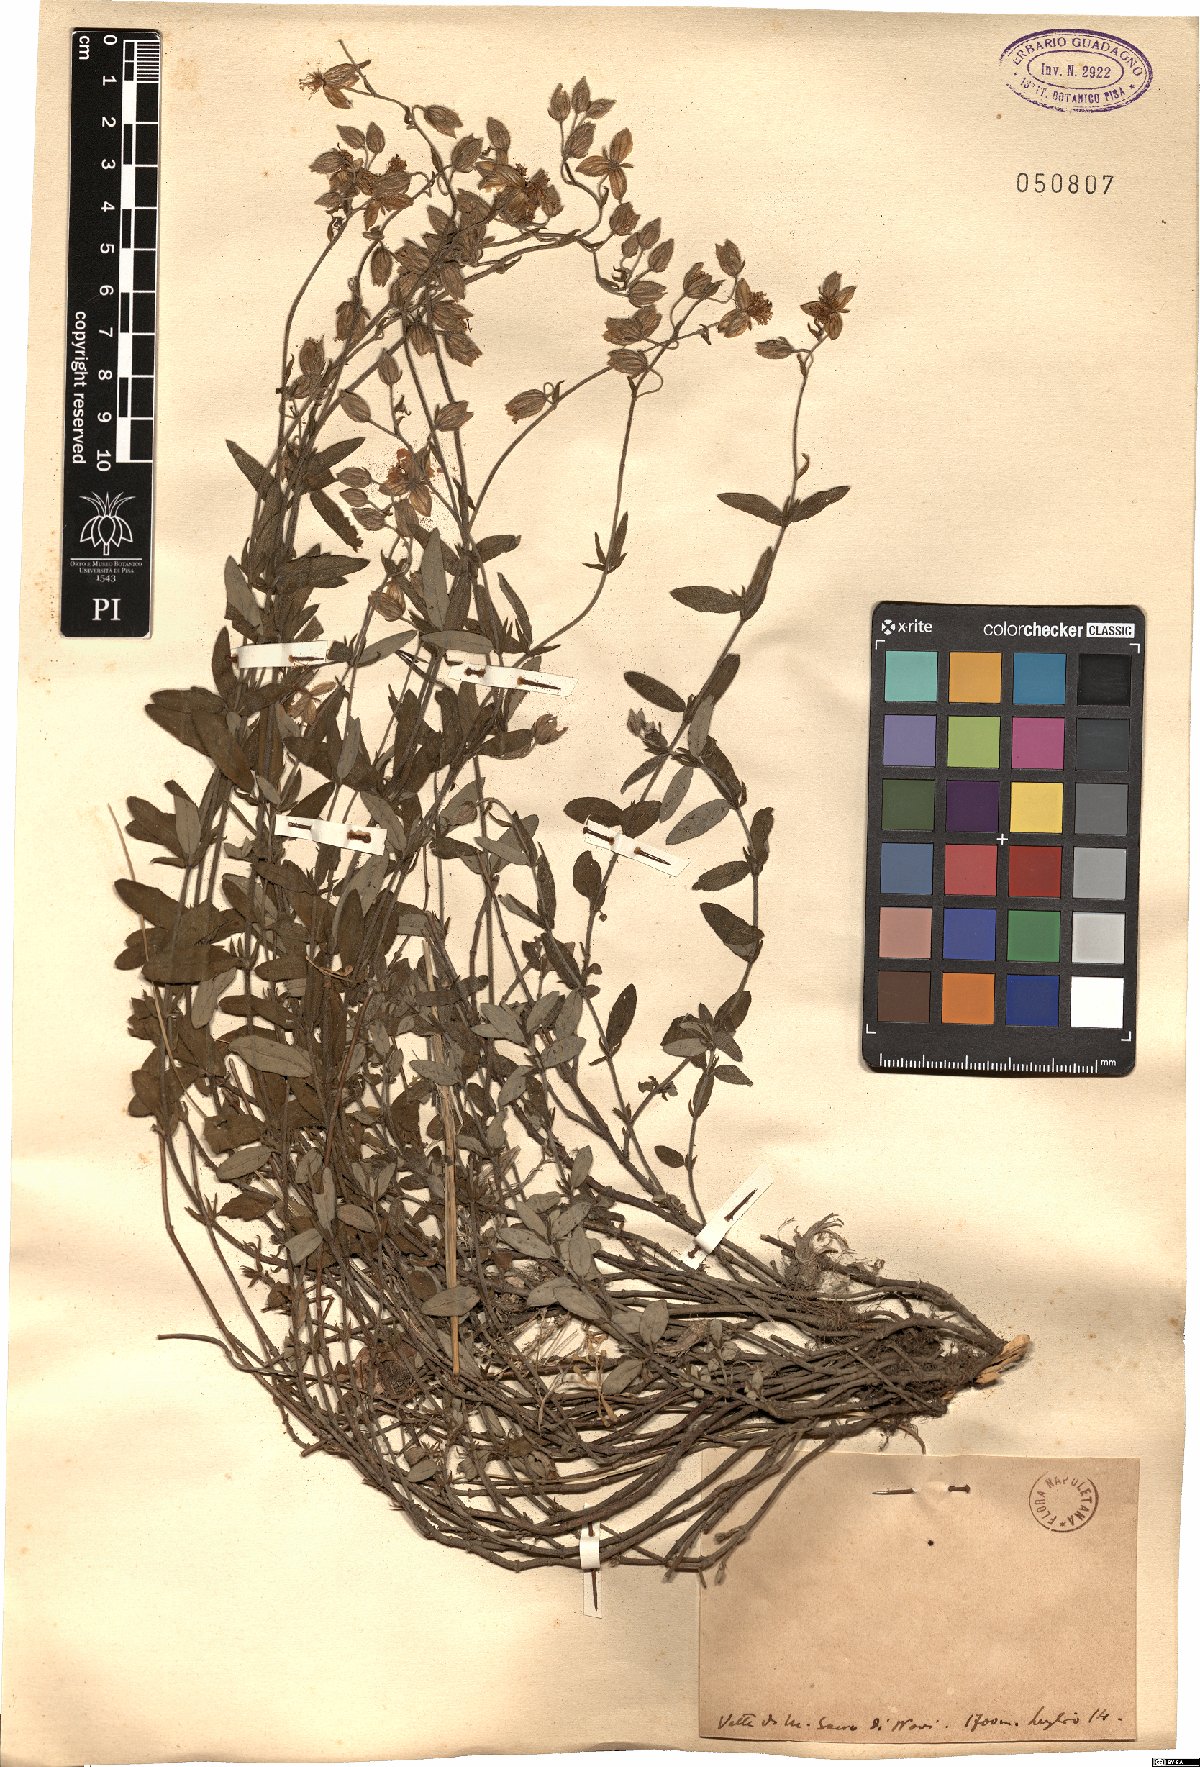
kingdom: Plantae
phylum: Tracheophyta
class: Magnoliopsida
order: Malvales
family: Cistaceae
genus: Helianthemum
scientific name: Helianthemum
